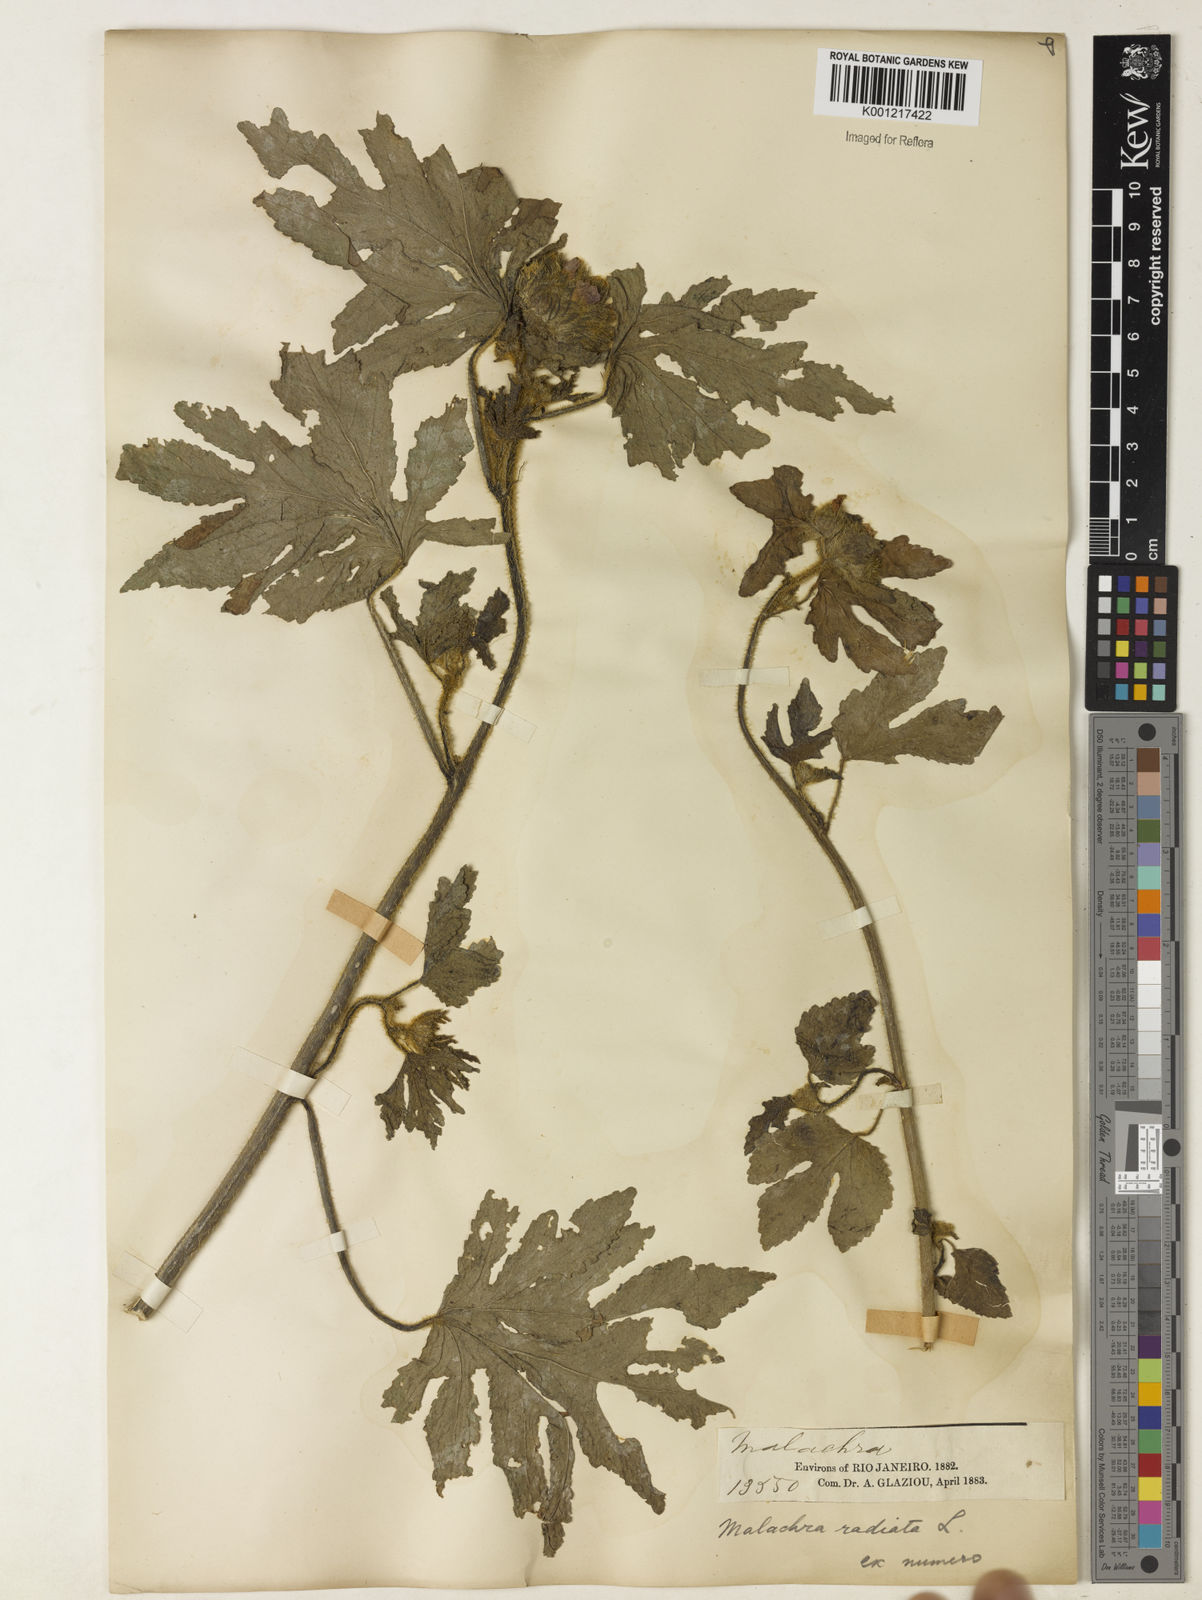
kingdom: Plantae
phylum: Tracheophyta
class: Magnoliopsida
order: Malvales
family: Malvaceae
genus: Malachra
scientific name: Malachra radiata
